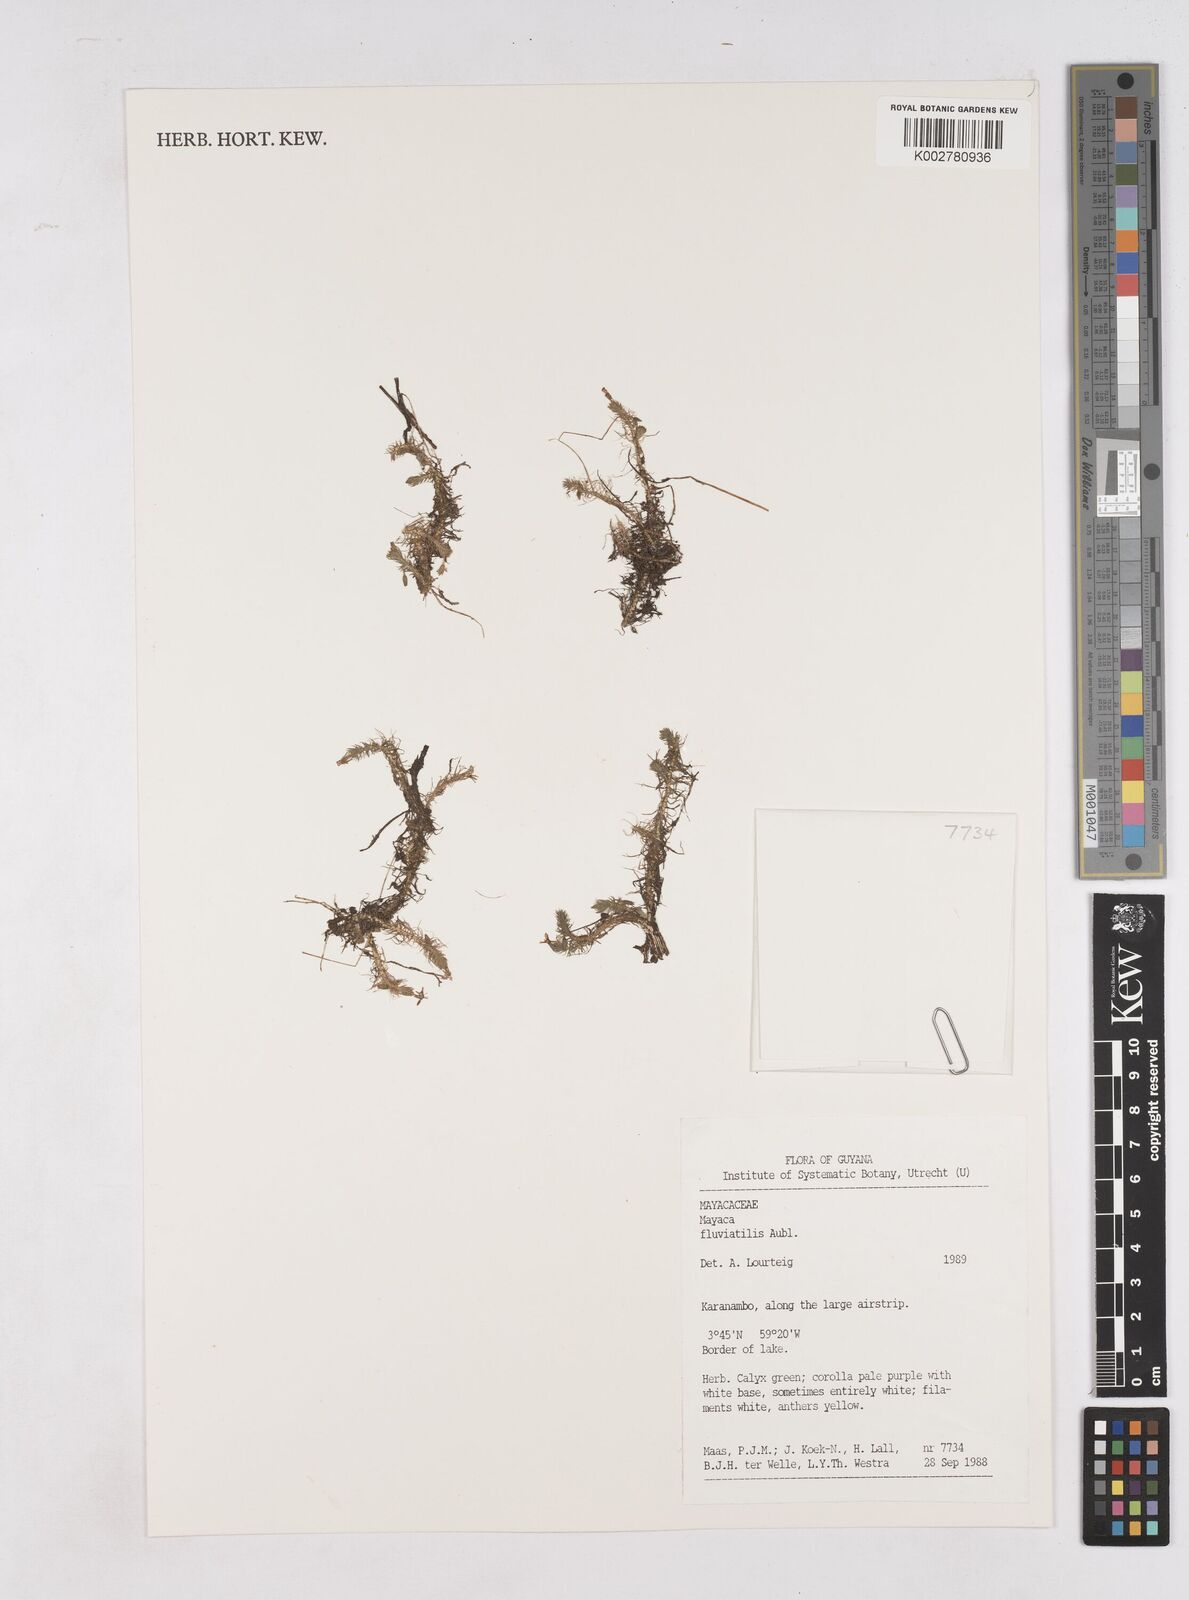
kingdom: Plantae
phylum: Tracheophyta
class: Liliopsida
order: Poales
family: Mayacaceae
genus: Mayaca
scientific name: Mayaca fluviatilis
